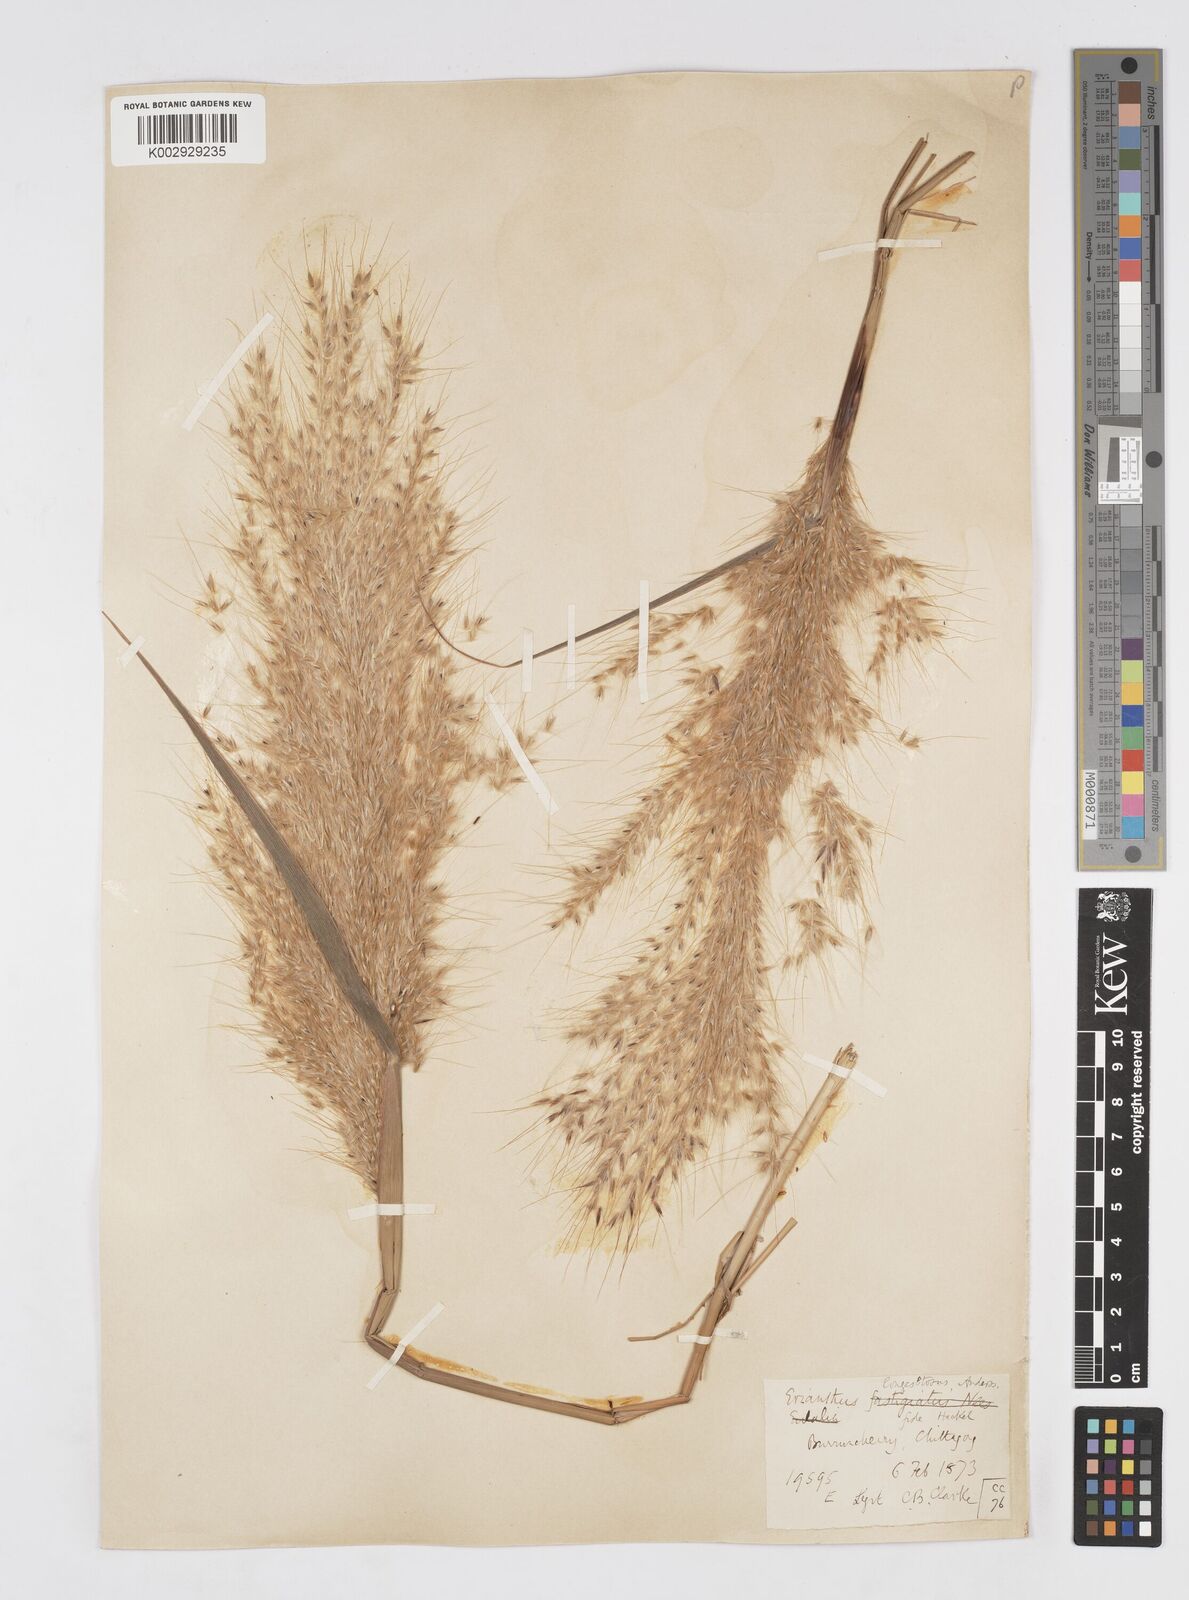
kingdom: Plantae
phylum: Tracheophyta
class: Liliopsida
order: Poales
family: Poaceae
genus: Melinis
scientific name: Melinis longiseta
